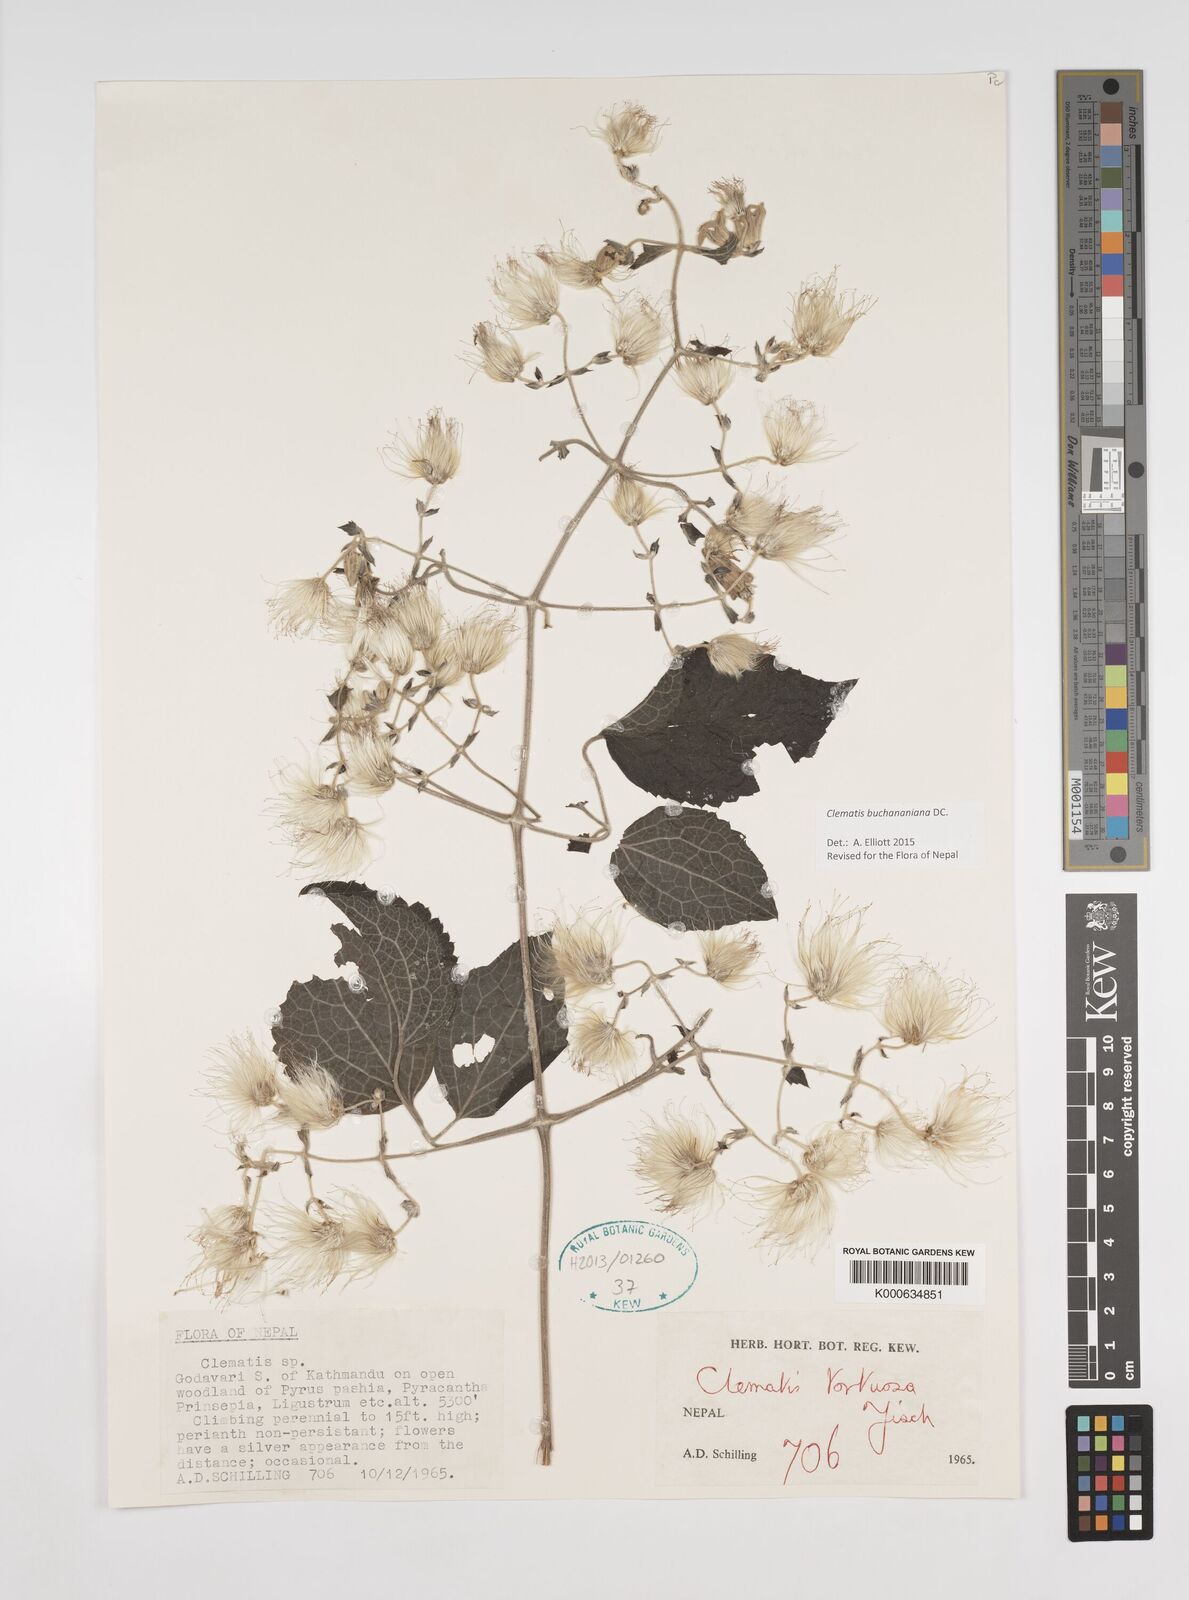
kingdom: Plantae
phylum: Tracheophyta
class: Magnoliopsida
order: Ranunculales
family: Ranunculaceae
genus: Clematis
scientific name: Clematis
